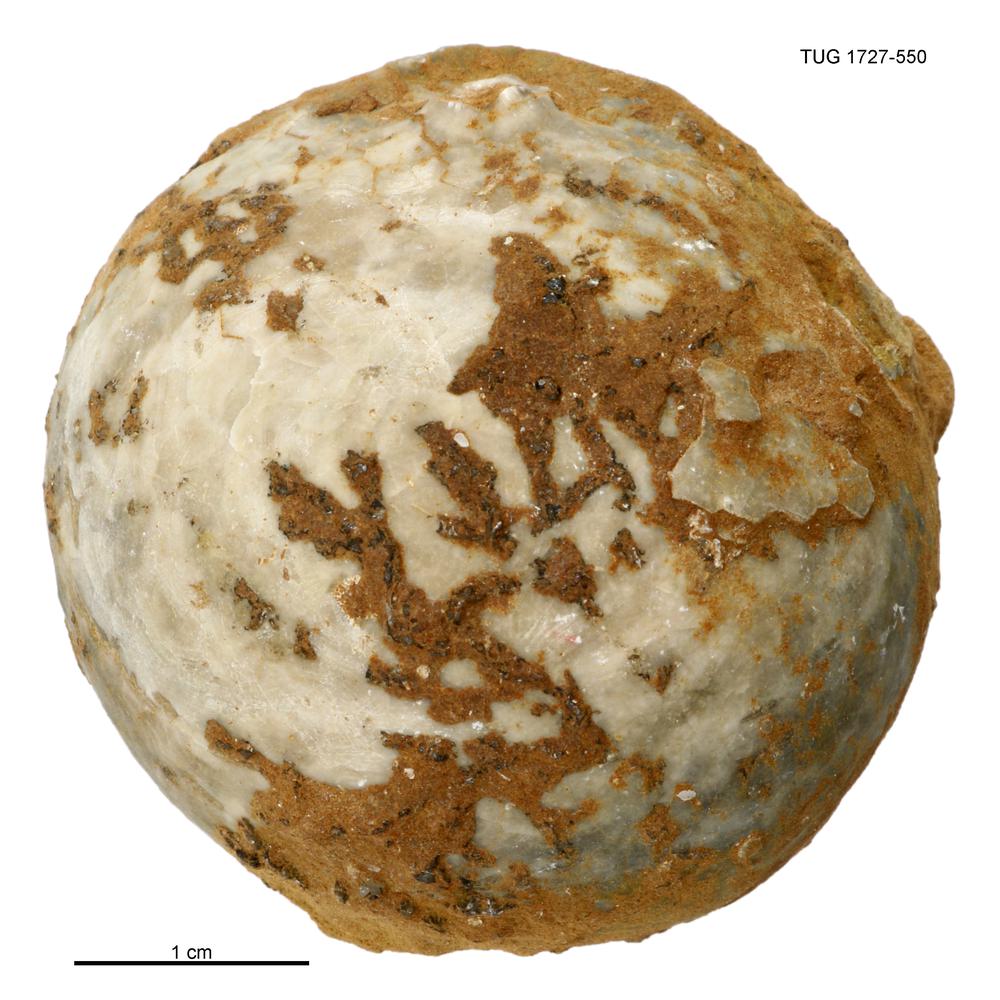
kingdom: Animalia
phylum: Echinodermata
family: Echinosphaeritidae
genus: Echinosphaerites
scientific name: Echinosphaerites
